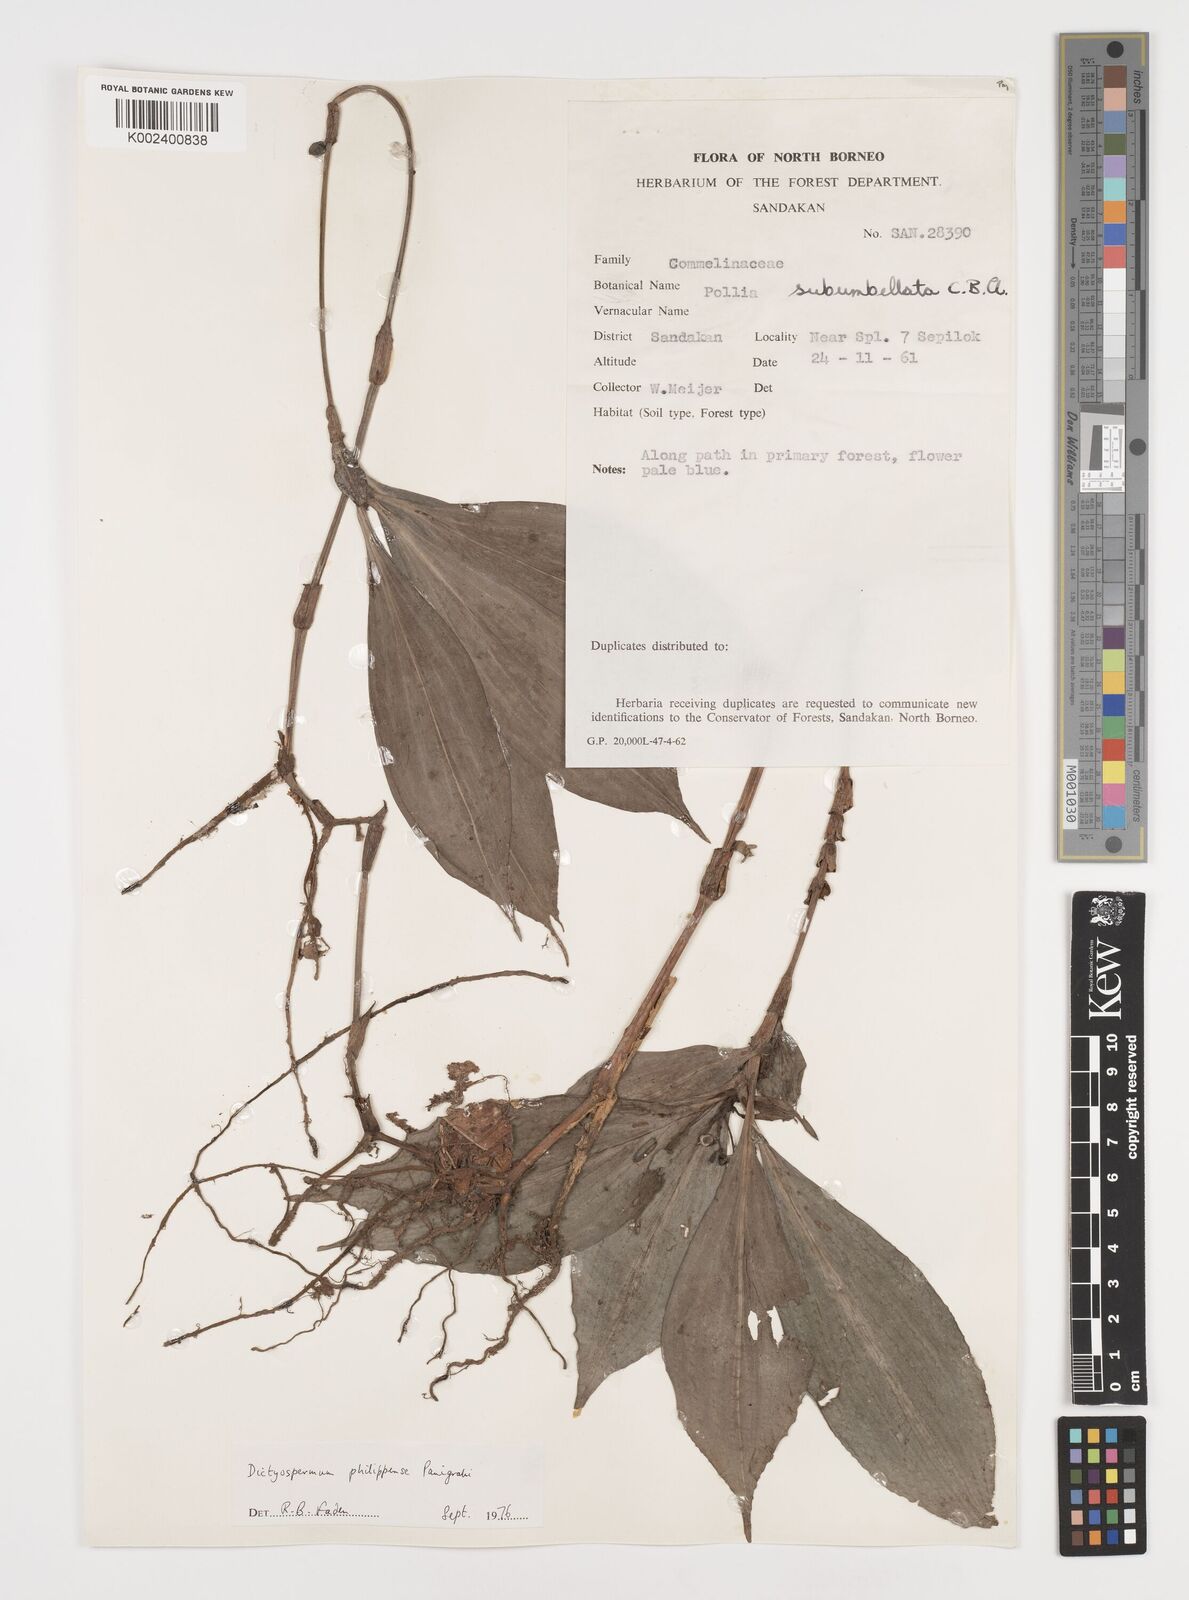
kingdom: Plantae
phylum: Tracheophyta
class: Liliopsida
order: Commelinales
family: Commelinaceae
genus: Tricarpelema
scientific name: Tricarpelema philippense
